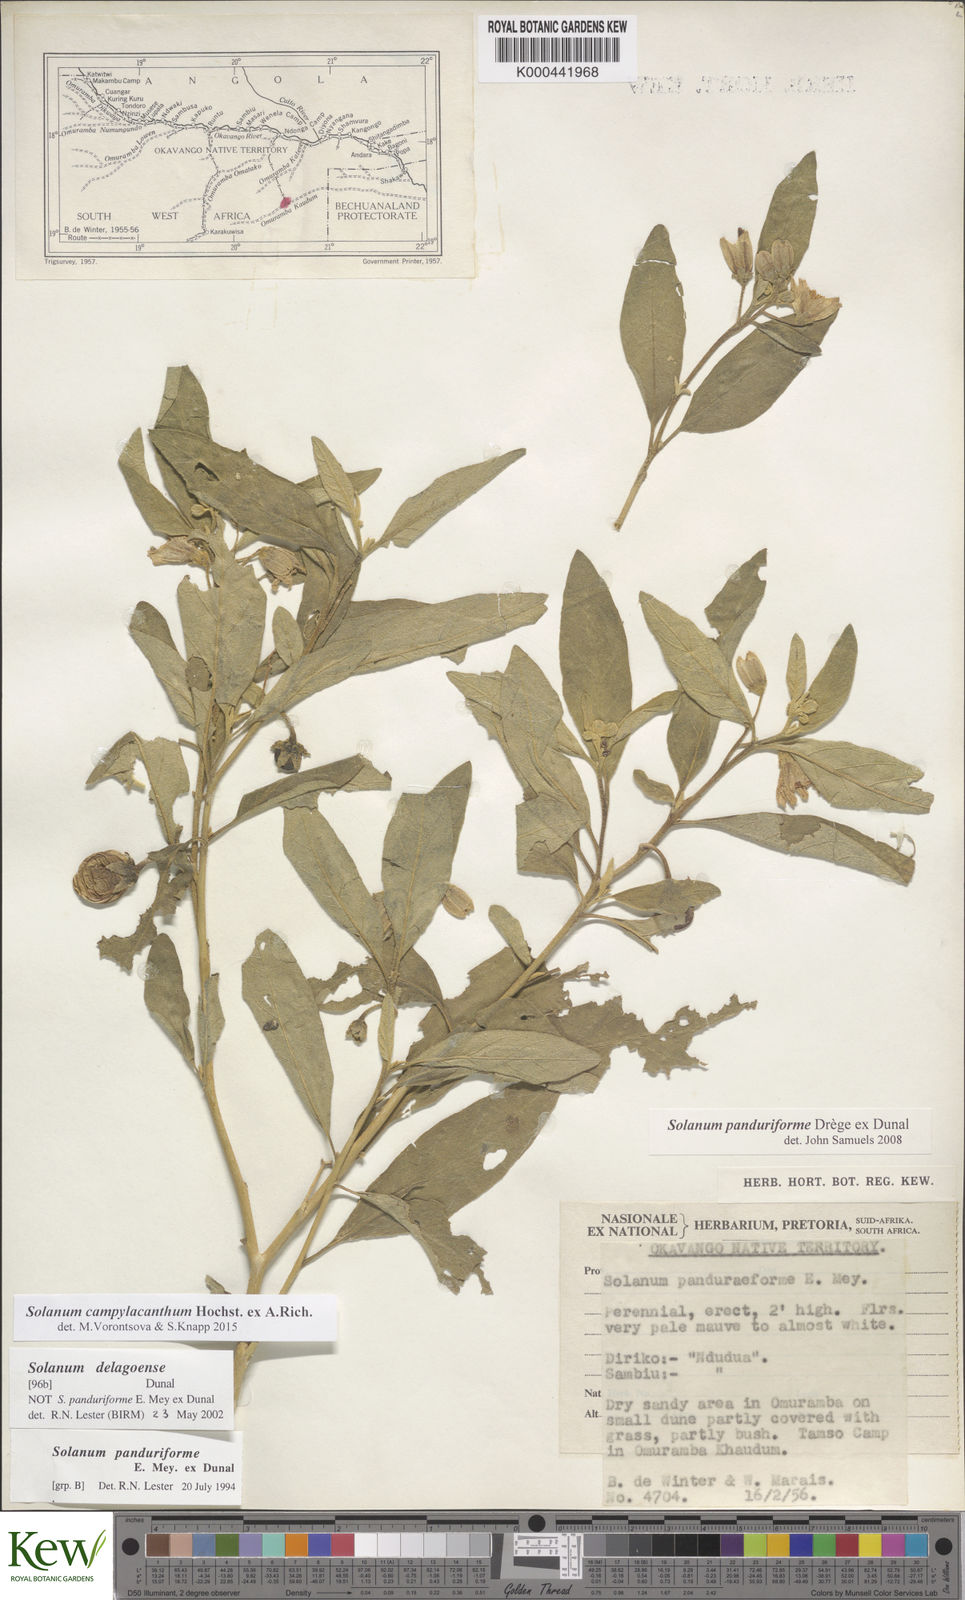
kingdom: Plantae
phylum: Tracheophyta
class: Magnoliopsida
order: Solanales
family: Solanaceae
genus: Solanum
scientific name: Solanum campylacanthum
